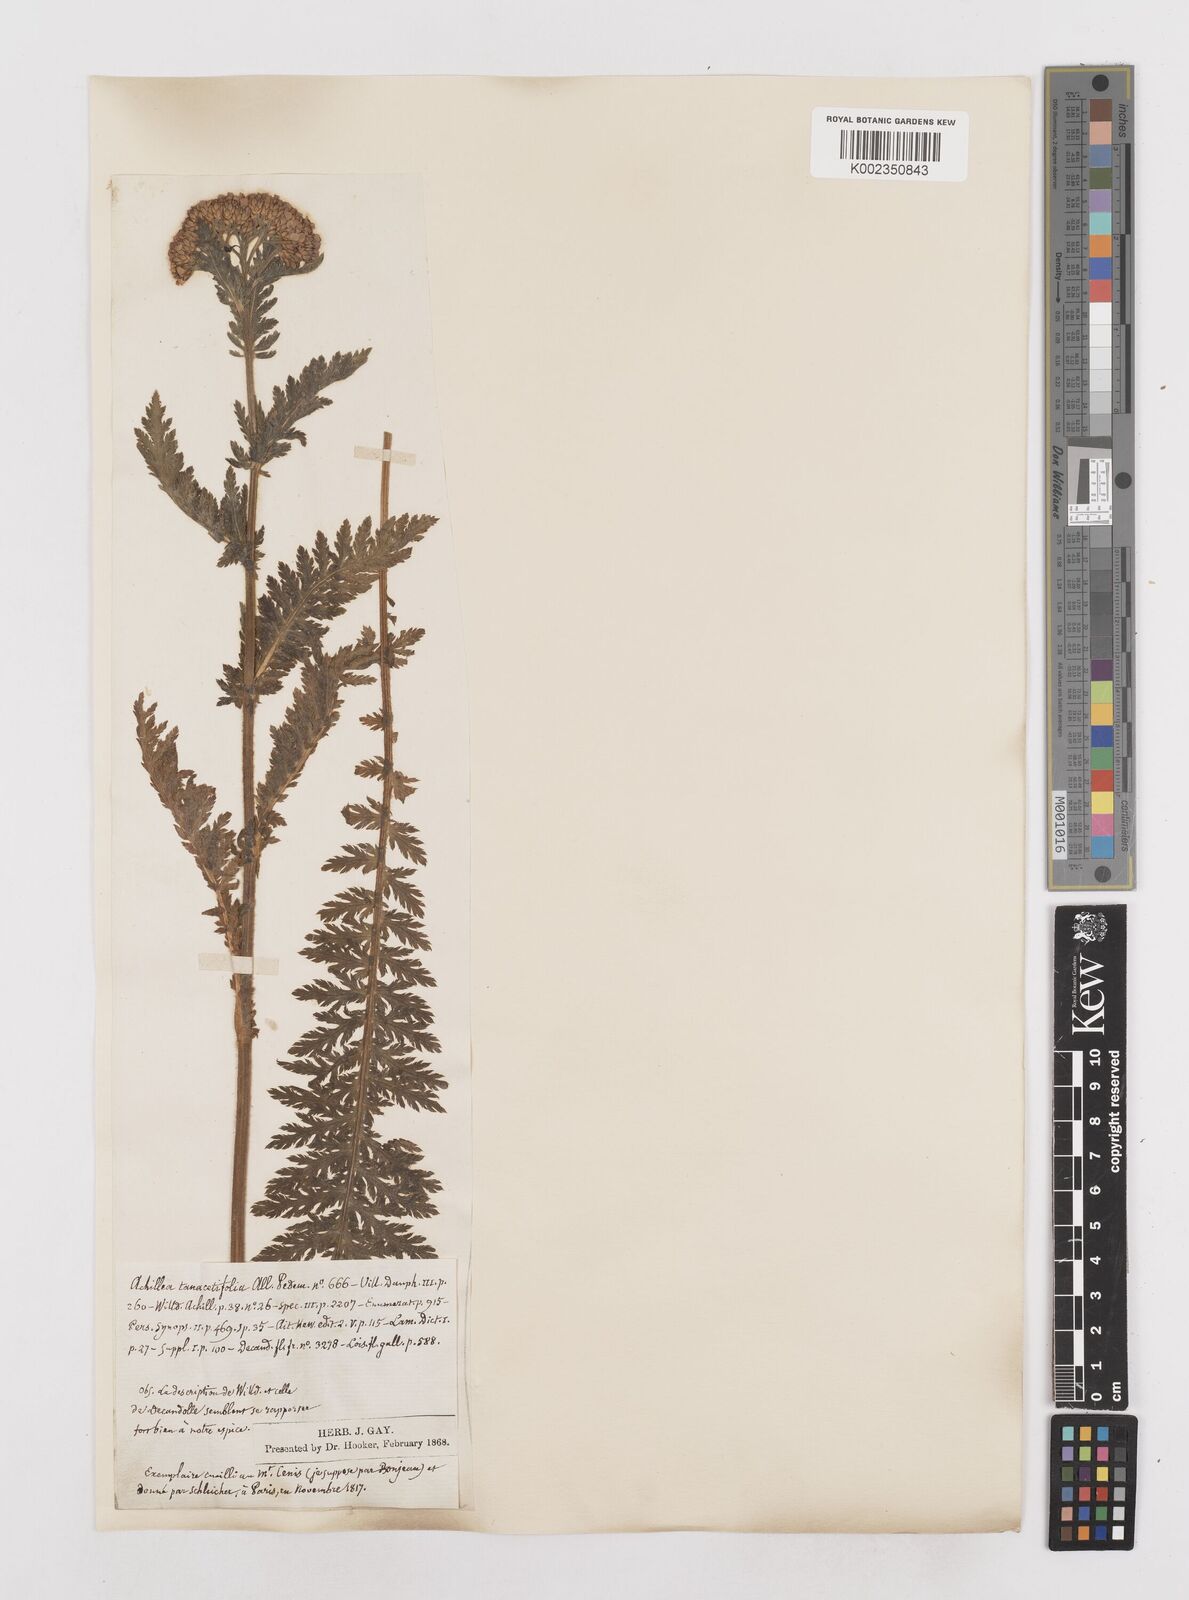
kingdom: Plantae
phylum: Tracheophyta
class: Magnoliopsida
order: Asterales
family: Asteraceae
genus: Achillea
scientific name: Achillea distans
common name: Tall yarrow
